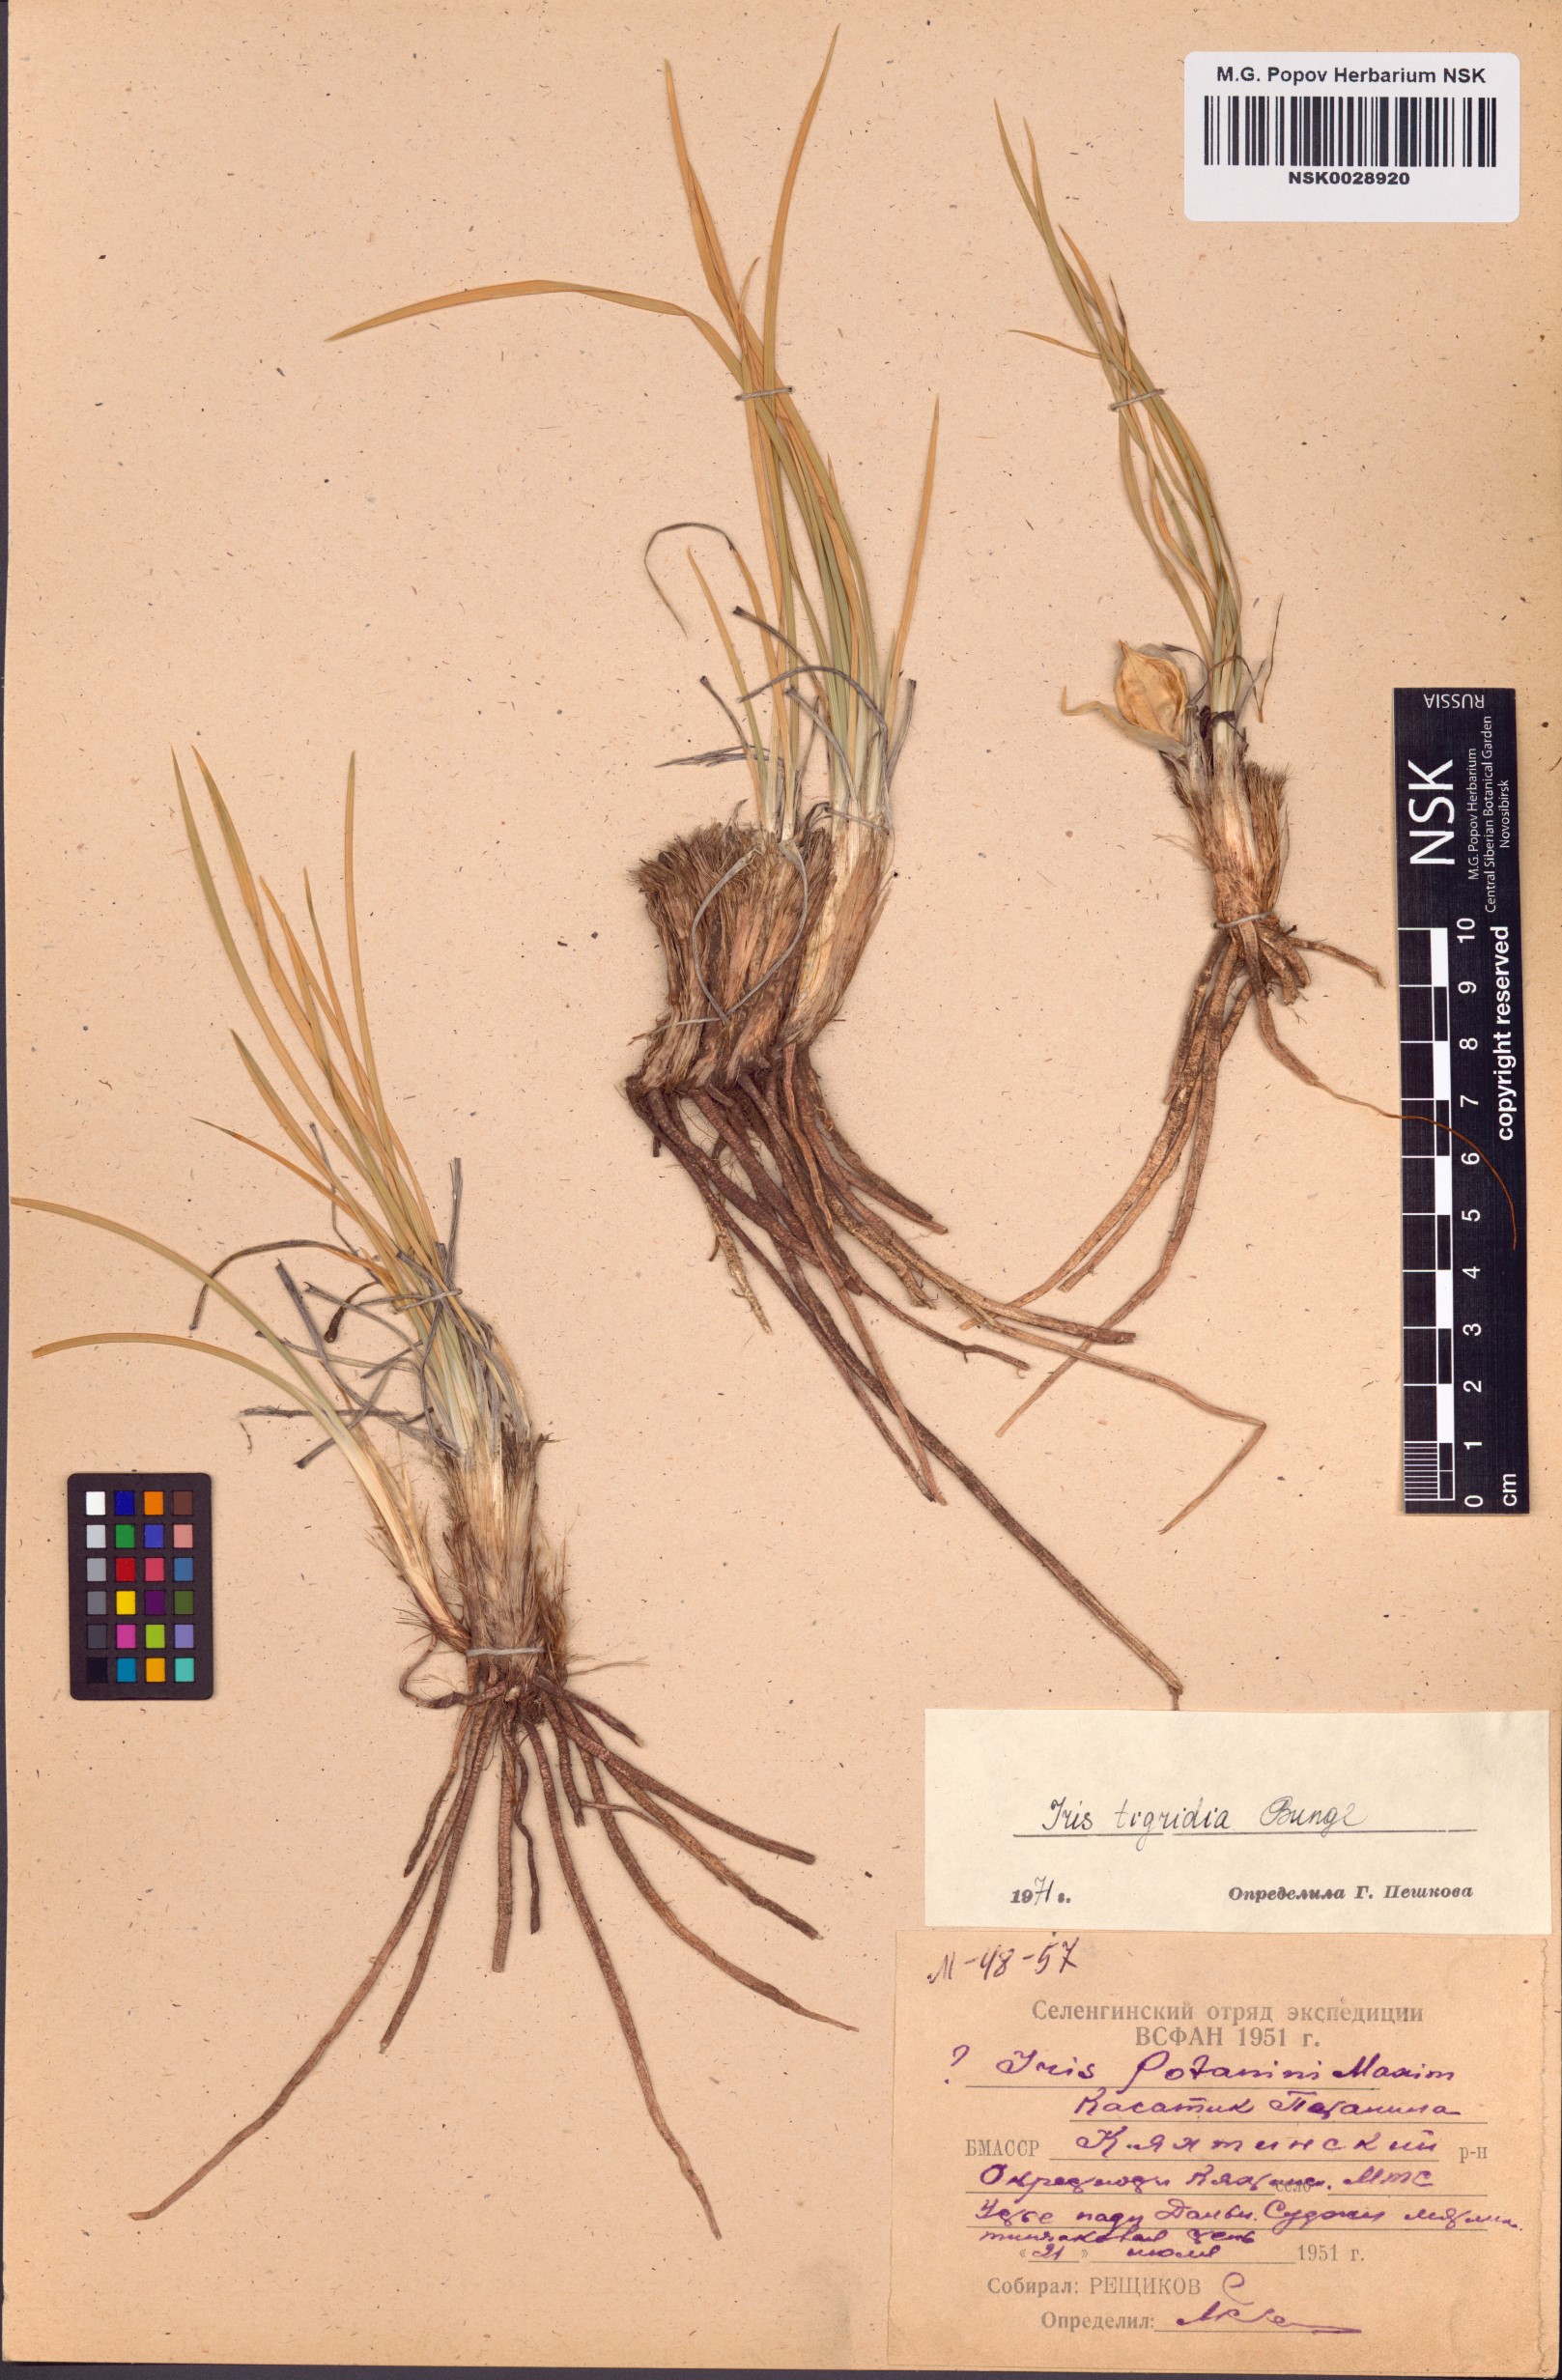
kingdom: Plantae
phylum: Tracheophyta
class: Liliopsida
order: Asparagales
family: Iridaceae
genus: Iris
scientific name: Iris tigridia
